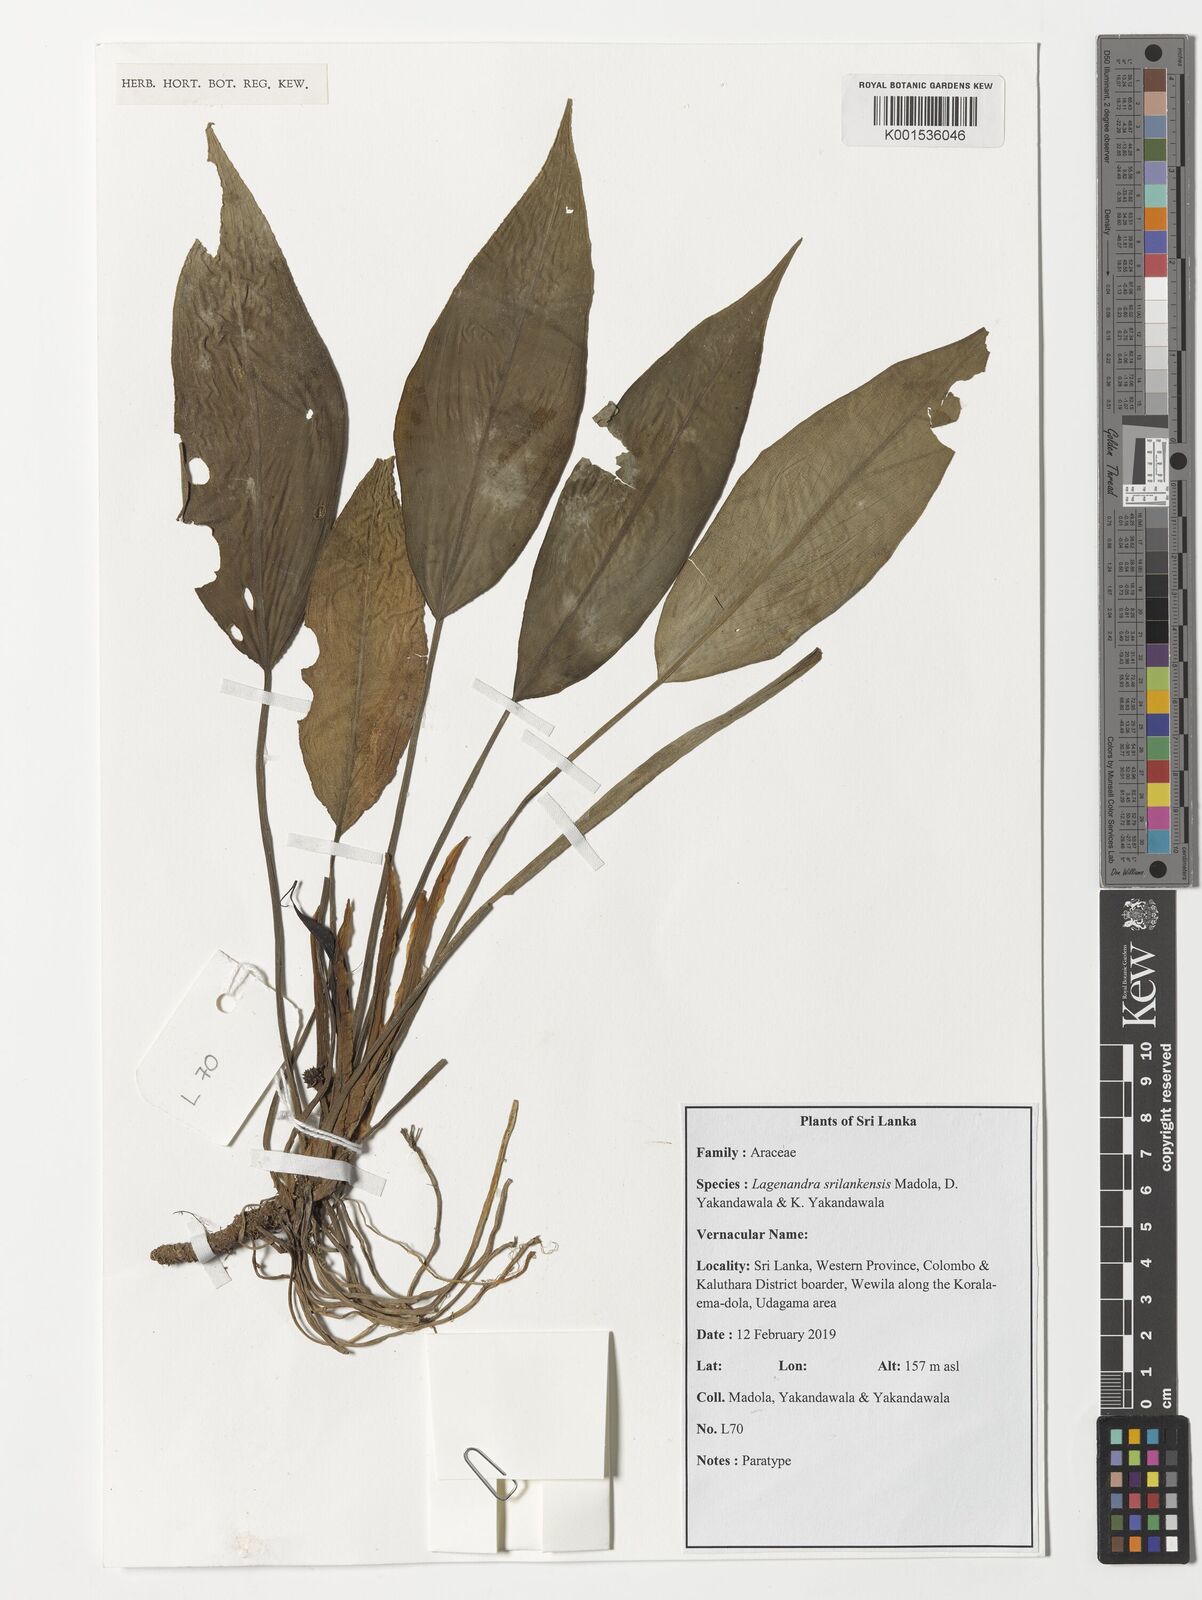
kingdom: Plantae
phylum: Tracheophyta
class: Liliopsida
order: Alismatales
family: Araceae
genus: Lagenandra
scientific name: Lagenandra
